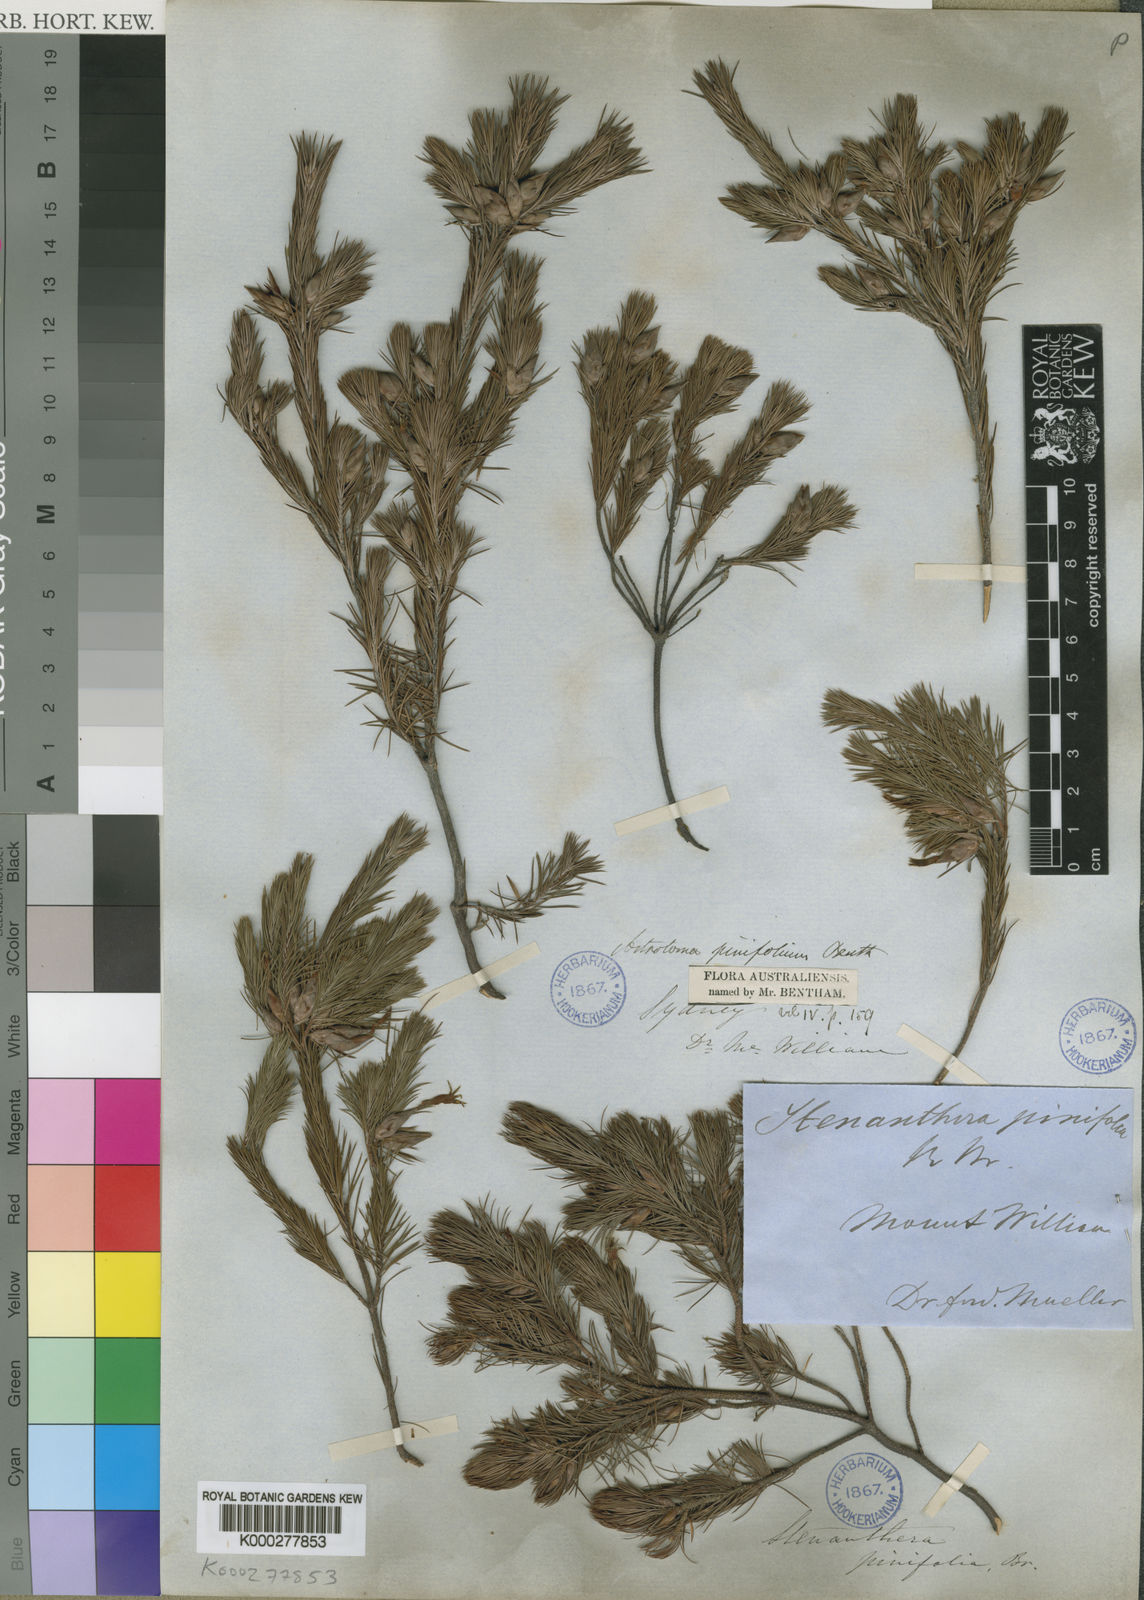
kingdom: Plantae
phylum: Tracheophyta
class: Magnoliopsida
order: Ericales
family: Ericaceae
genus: Stenanthera
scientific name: Stenanthera pinifolia
